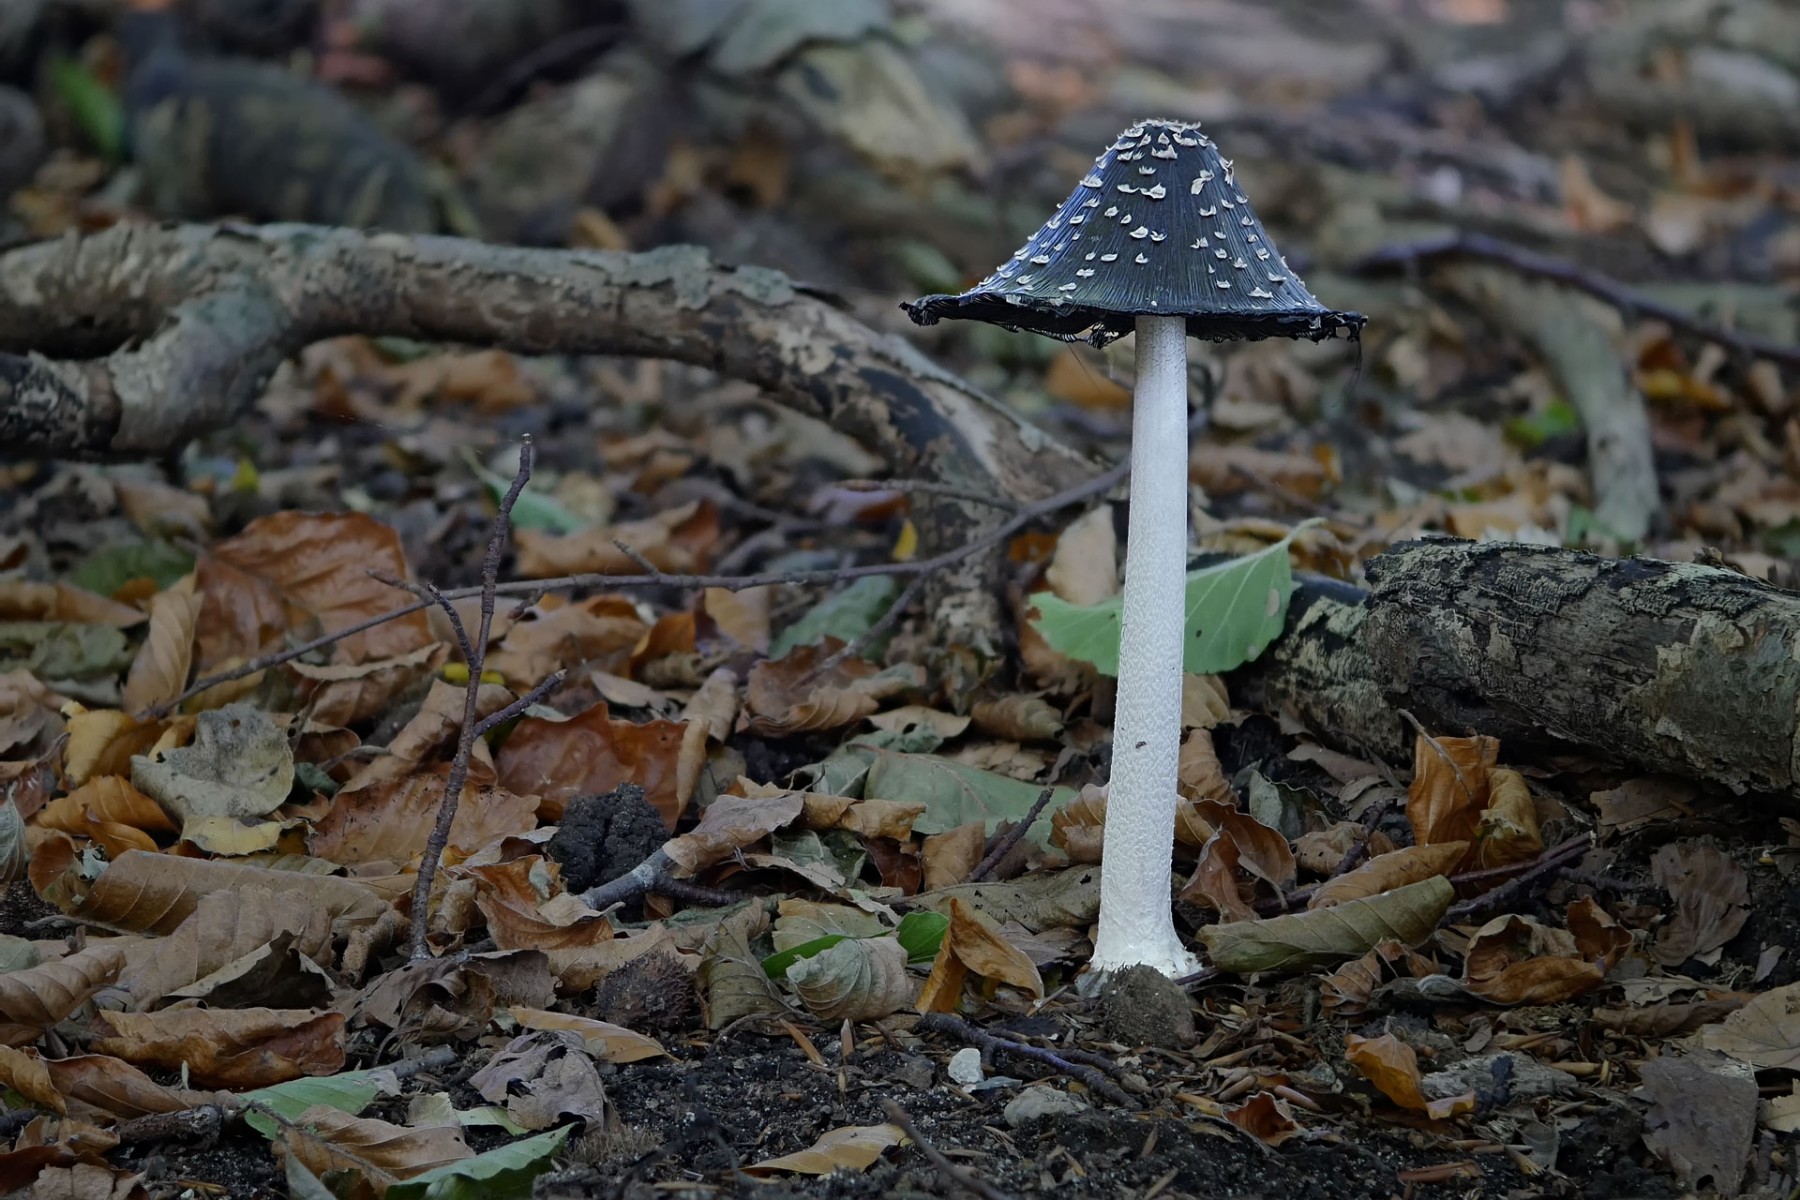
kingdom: Fungi
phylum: Basidiomycota
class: Agaricomycetes
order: Agaricales
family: Psathyrellaceae
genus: Coprinopsis
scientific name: Coprinopsis picacea
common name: skade-blækhat
